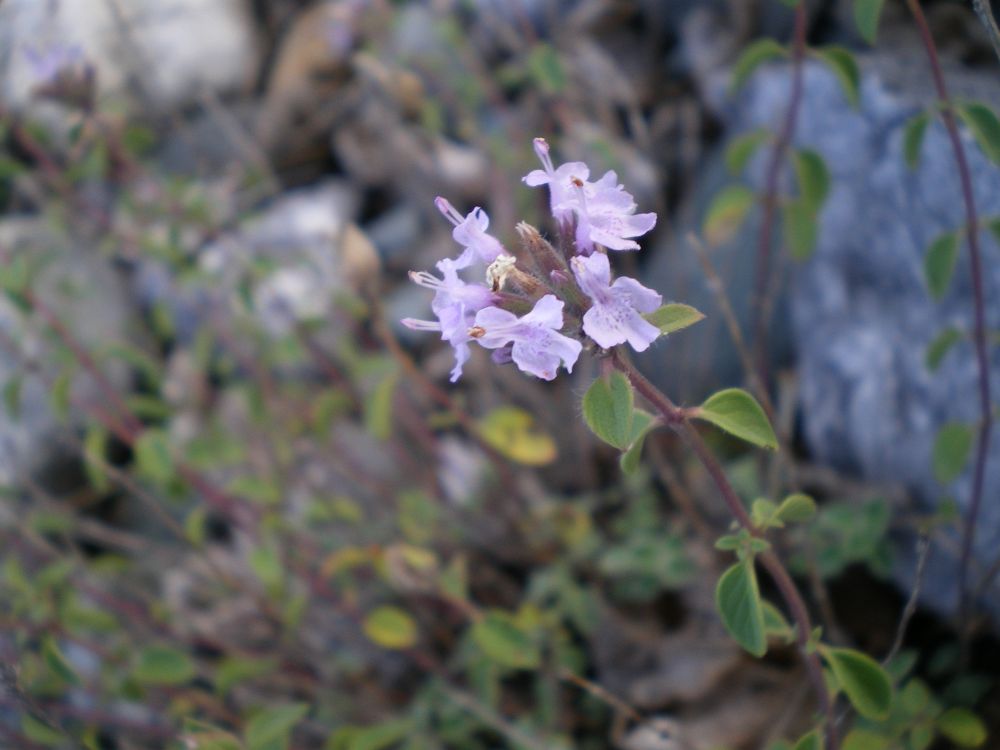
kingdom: Plantae
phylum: Tracheophyta
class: Magnoliopsida
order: Lamiales
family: Lamiaceae
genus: Ziziphora
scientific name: Ziziphora clinopodioides
